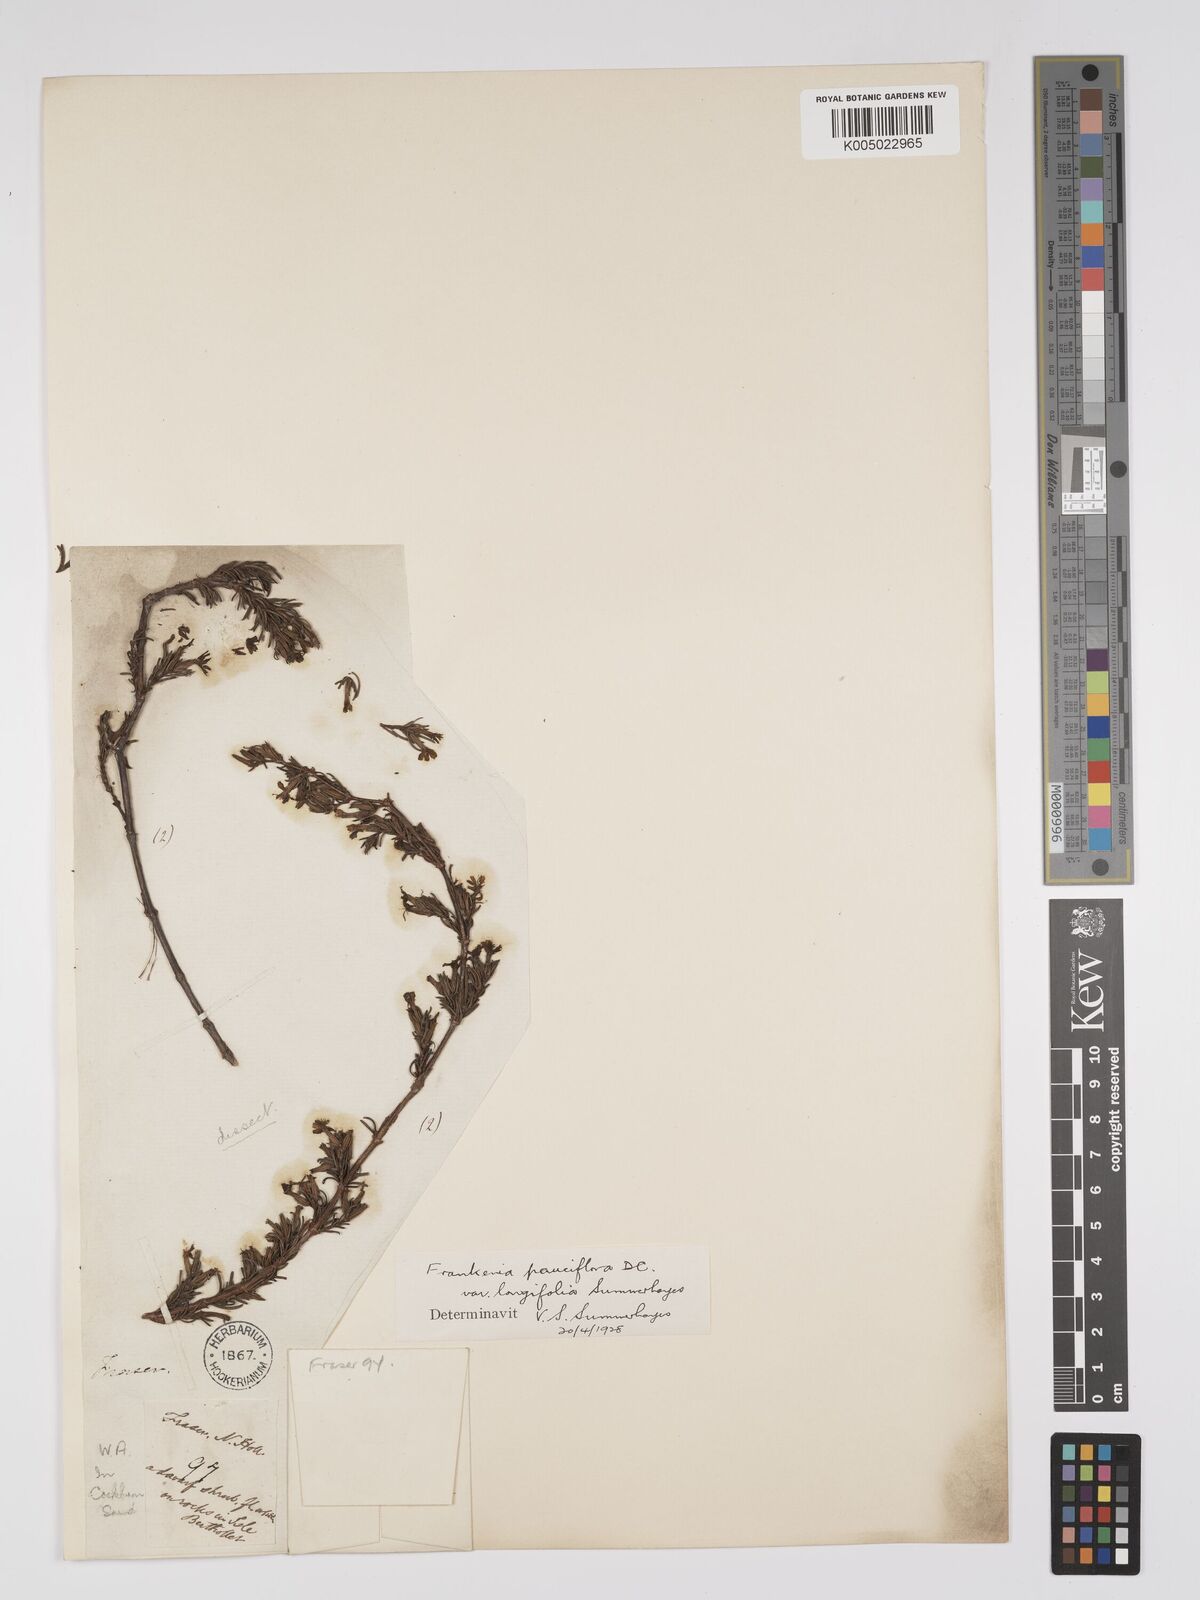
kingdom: Plantae
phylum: Tracheophyta
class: Magnoliopsida
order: Caryophyllales
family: Frankeniaceae
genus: Frankenia
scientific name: Frankenia pauciflora
